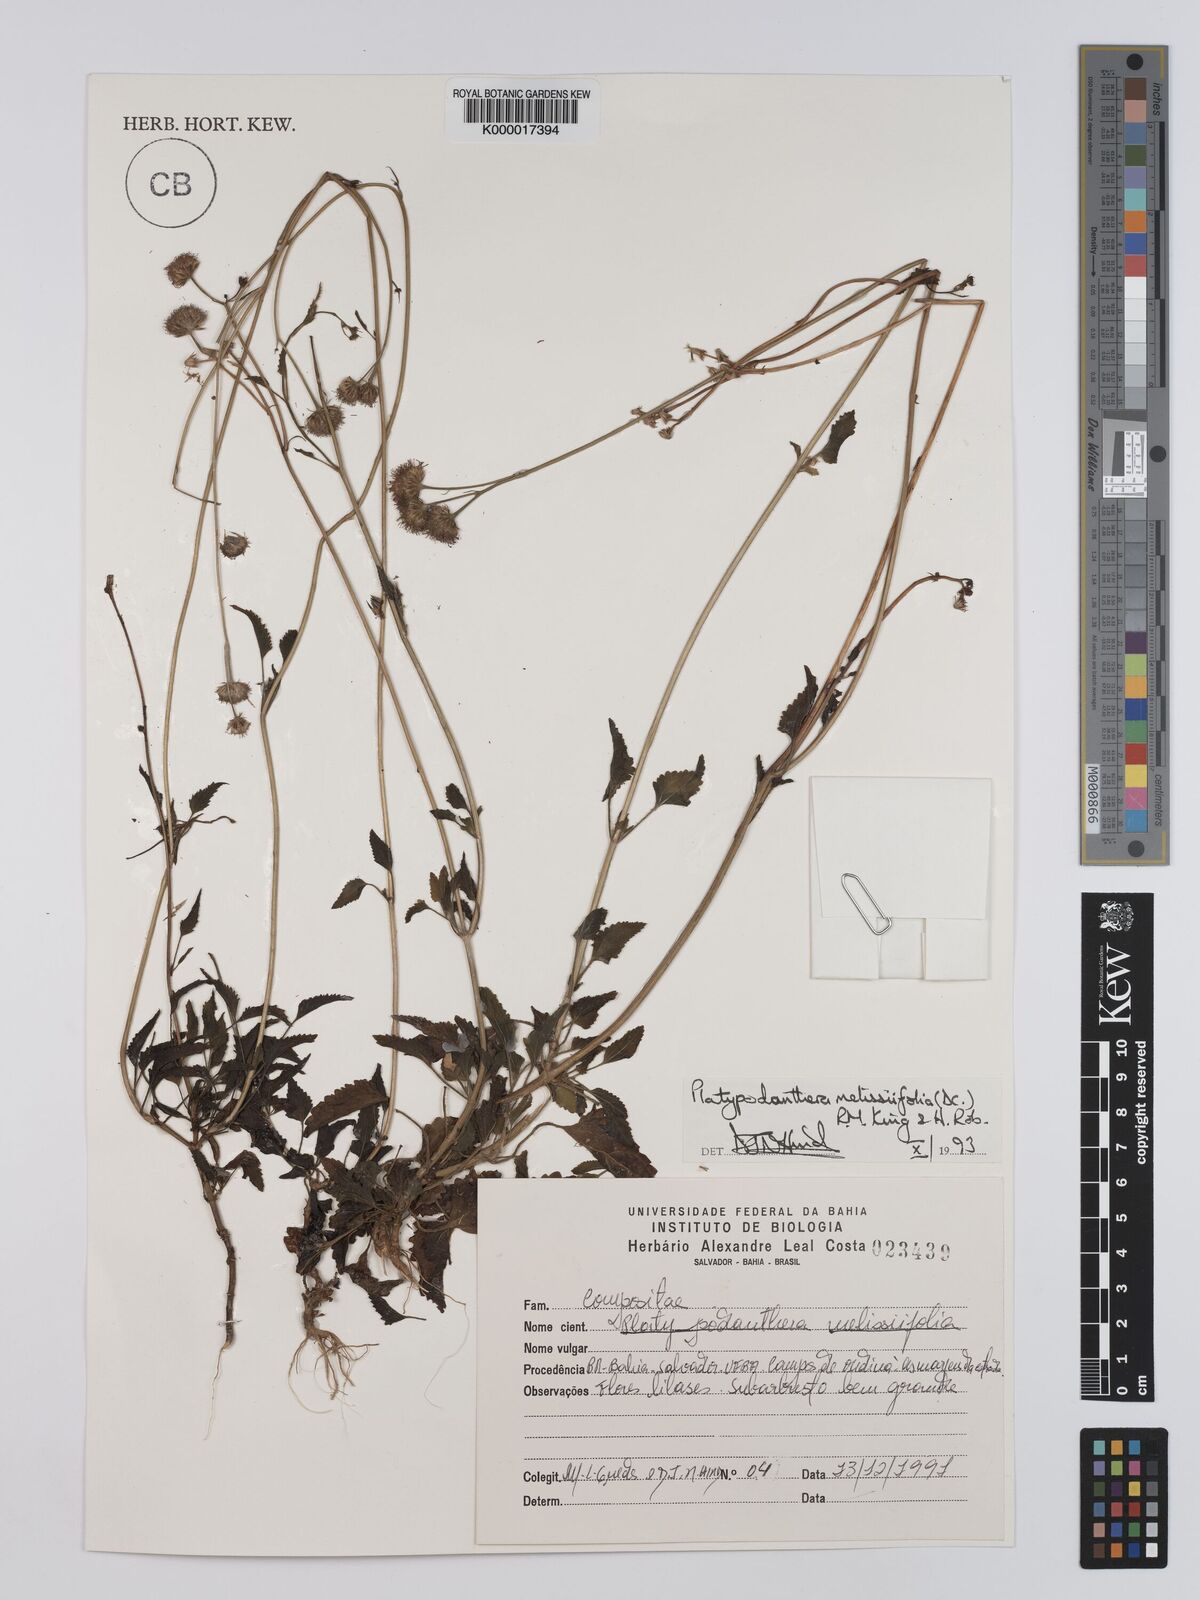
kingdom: Plantae
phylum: Tracheophyta
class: Magnoliopsida
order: Asterales
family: Asteraceae
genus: Platypodanthera
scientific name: Platypodanthera melissifolia
